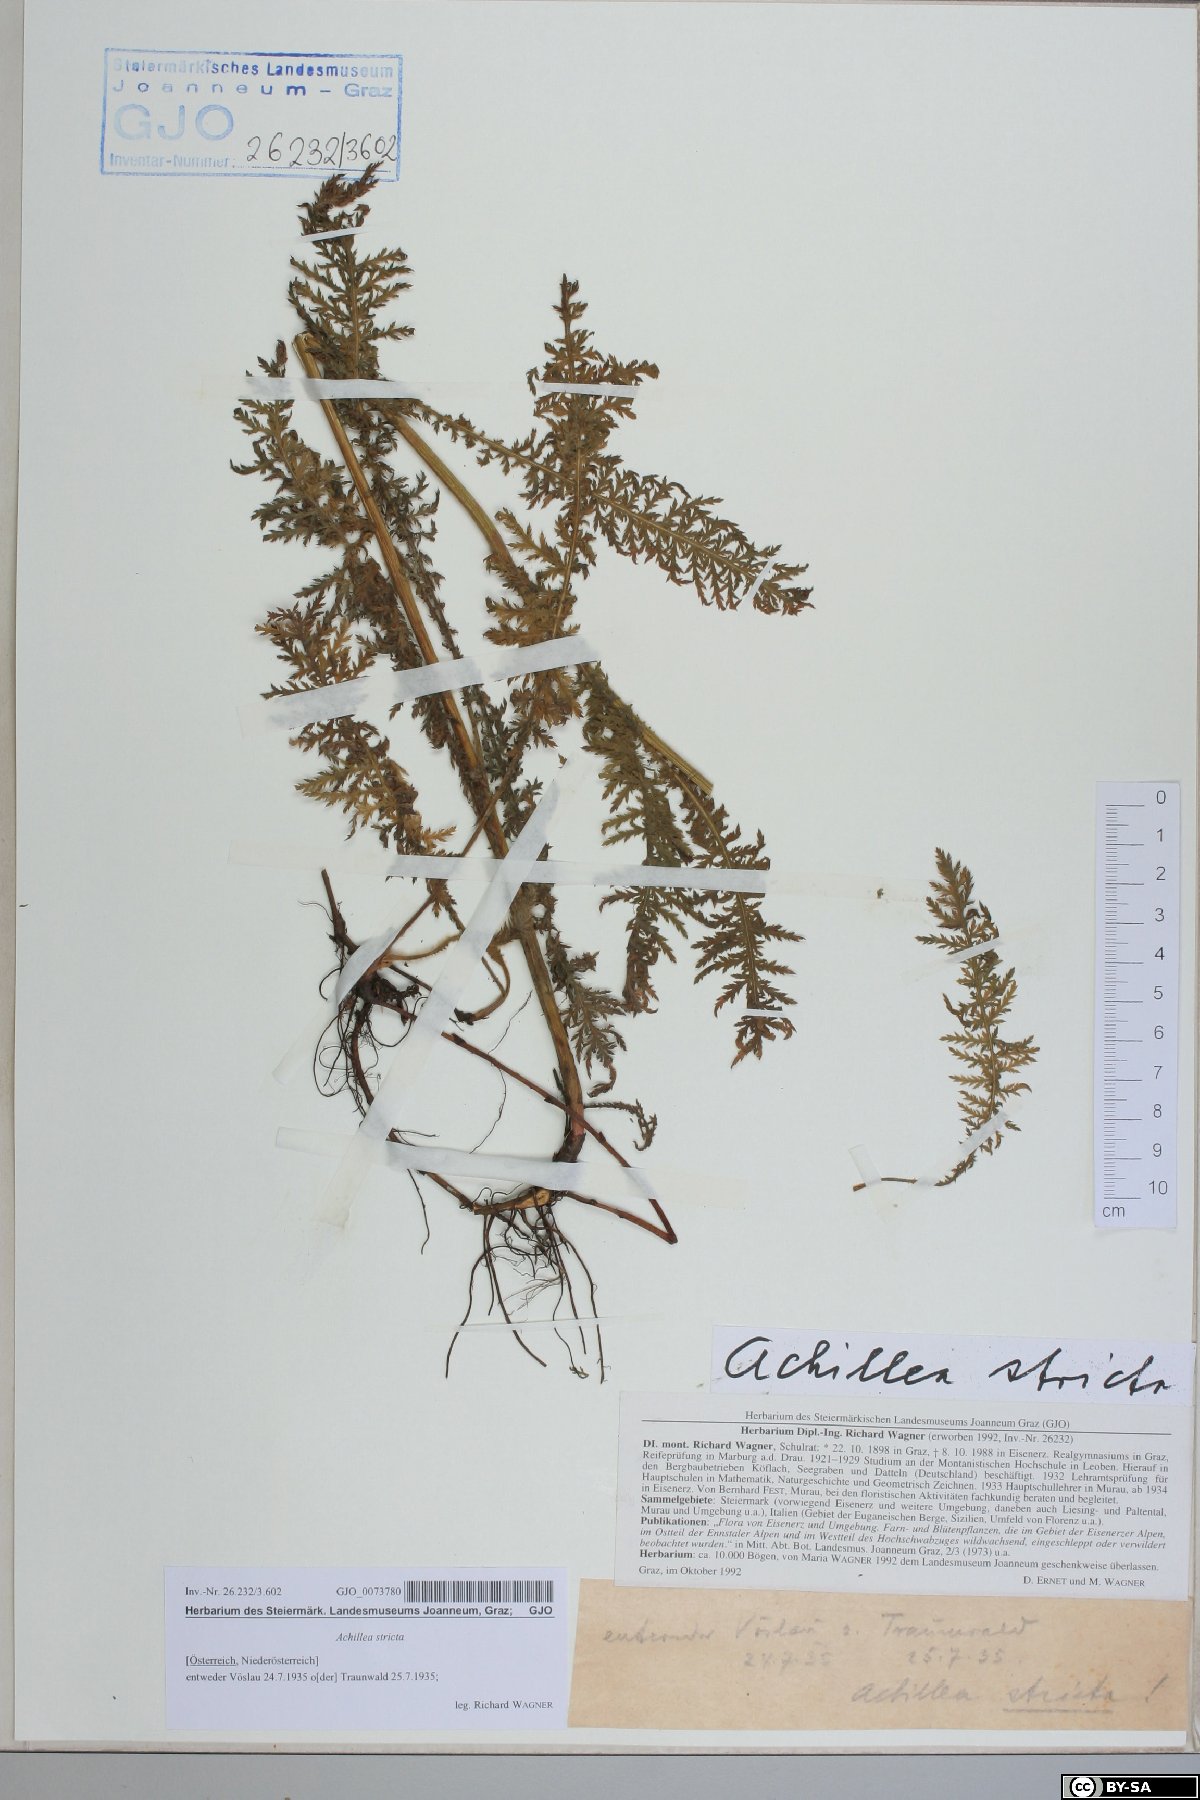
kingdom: Plantae
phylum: Tracheophyta
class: Magnoliopsida
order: Asterales
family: Asteraceae
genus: Achillea
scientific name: Achillea distans
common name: Tall yarrow
